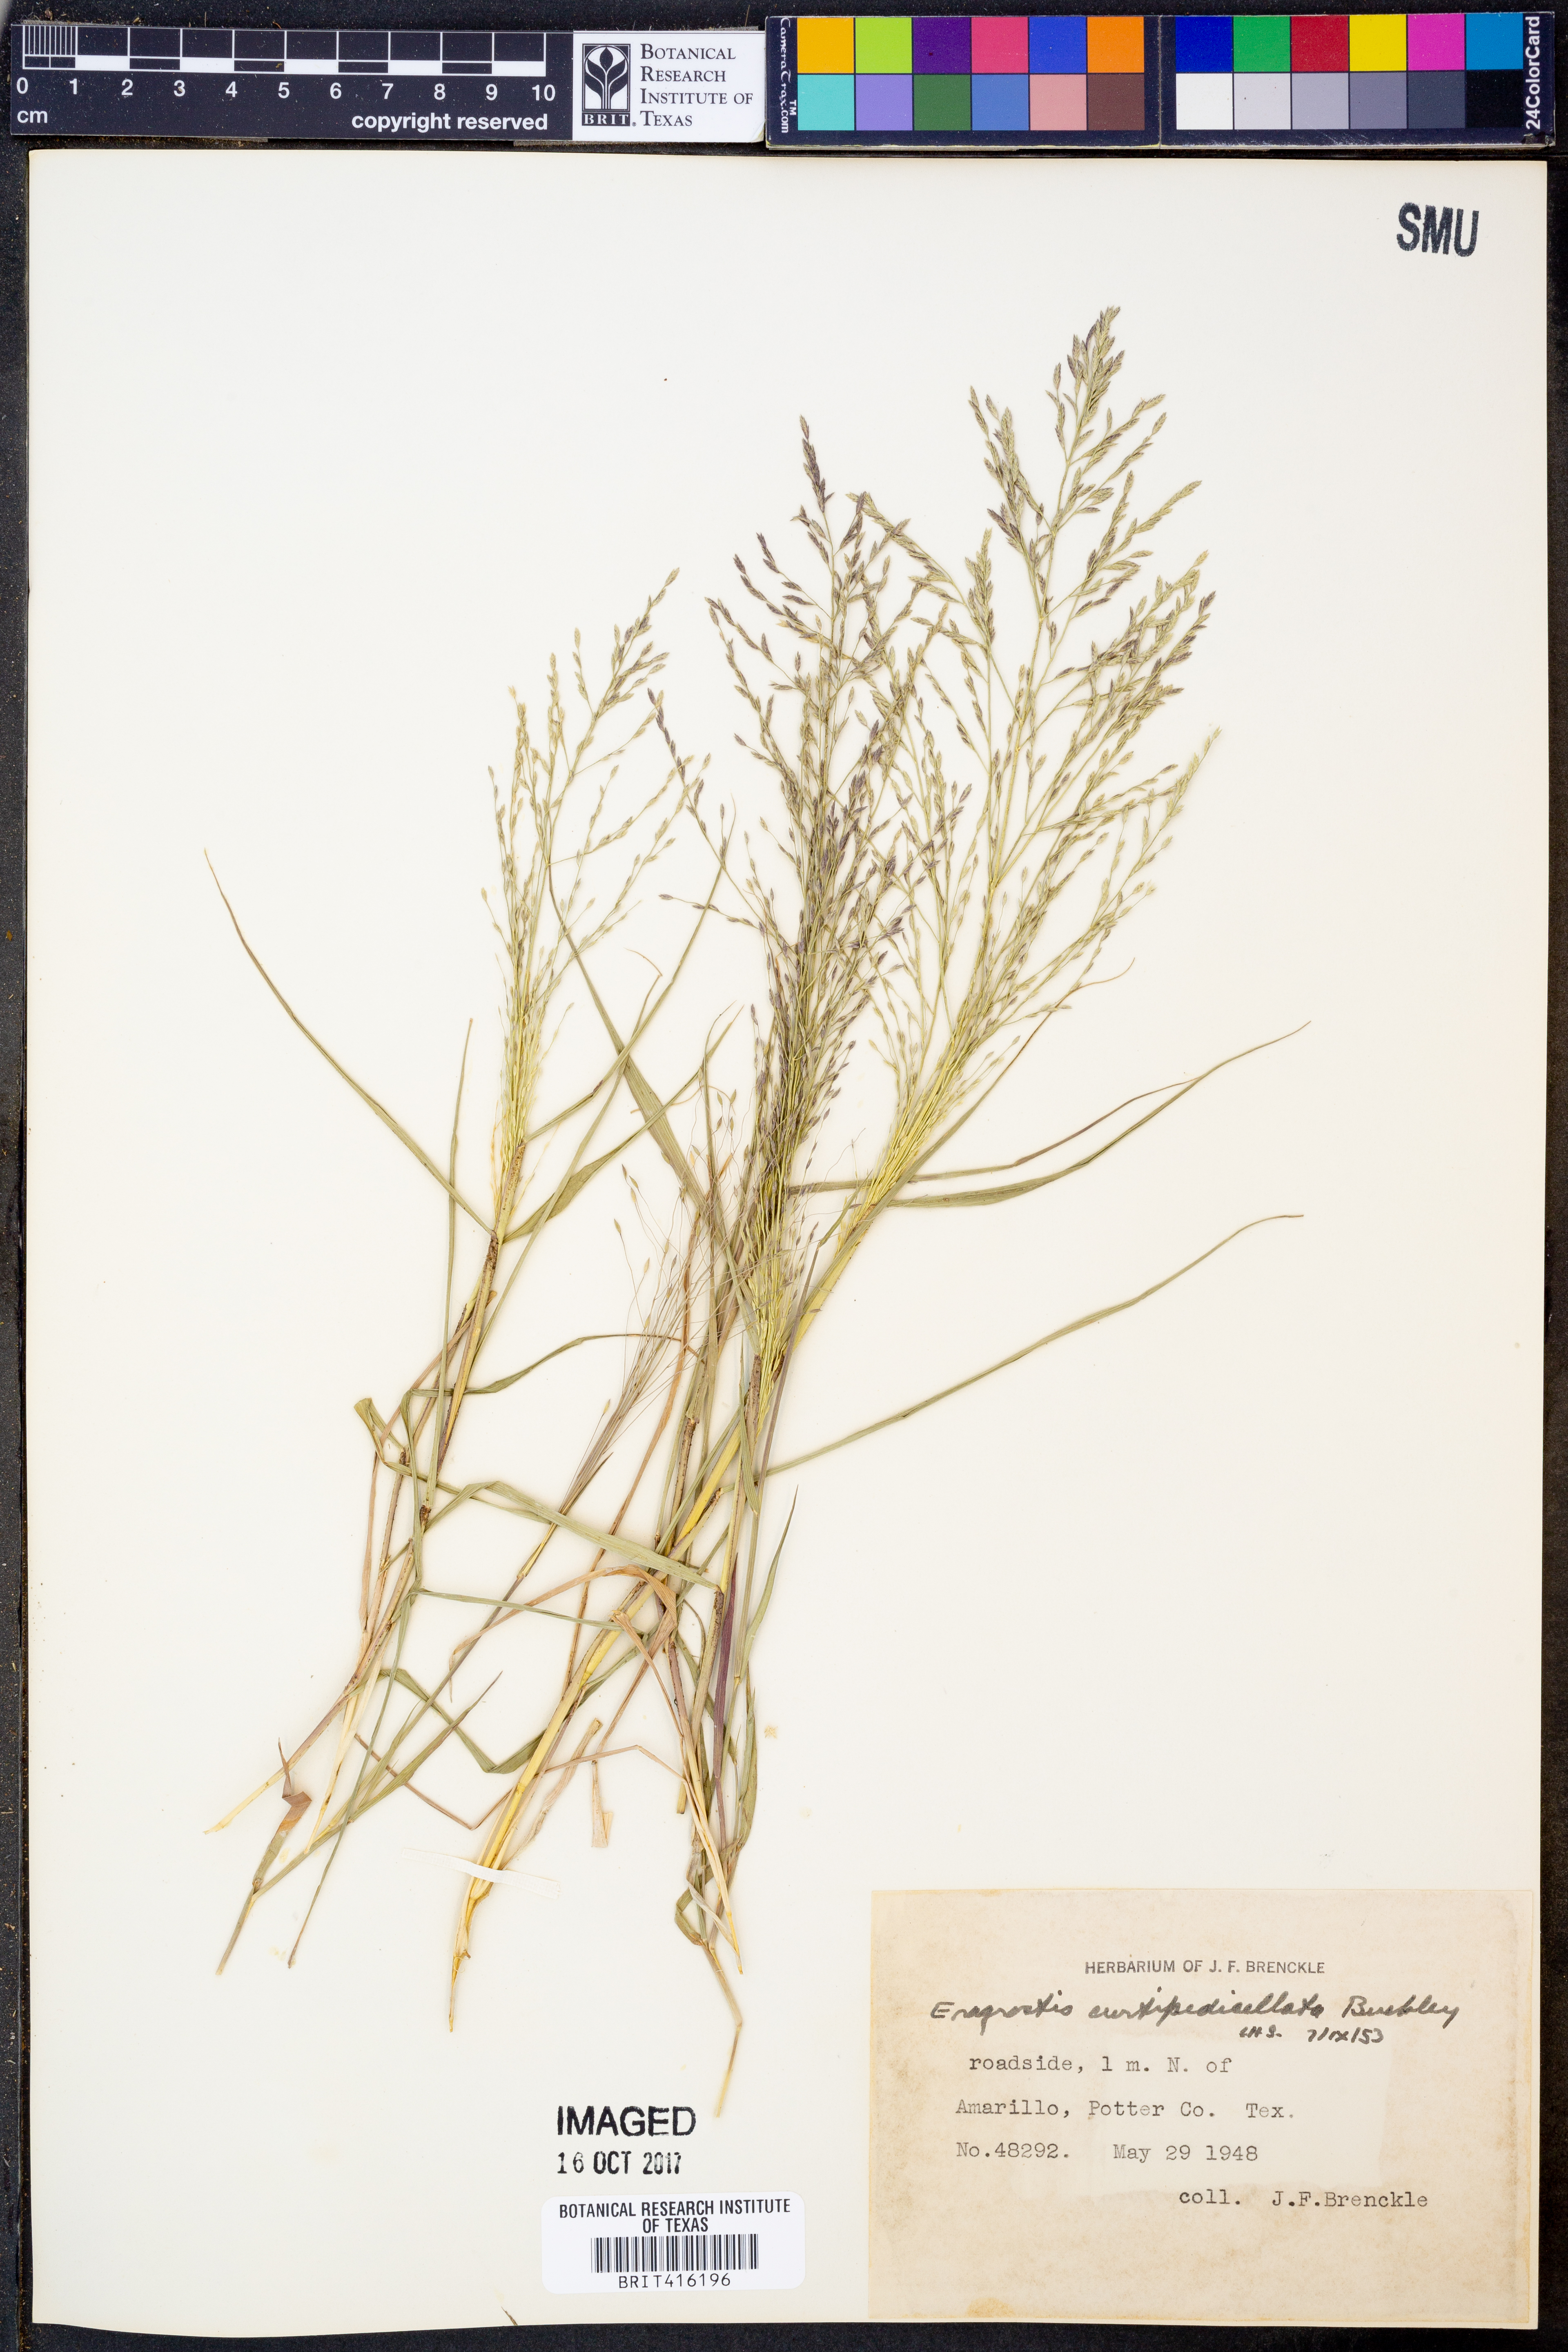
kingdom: Plantae
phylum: Tracheophyta
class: Liliopsida
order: Poales
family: Poaceae
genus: Eragrostis
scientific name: Eragrostis curtipedicellata
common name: Gummy love grass
